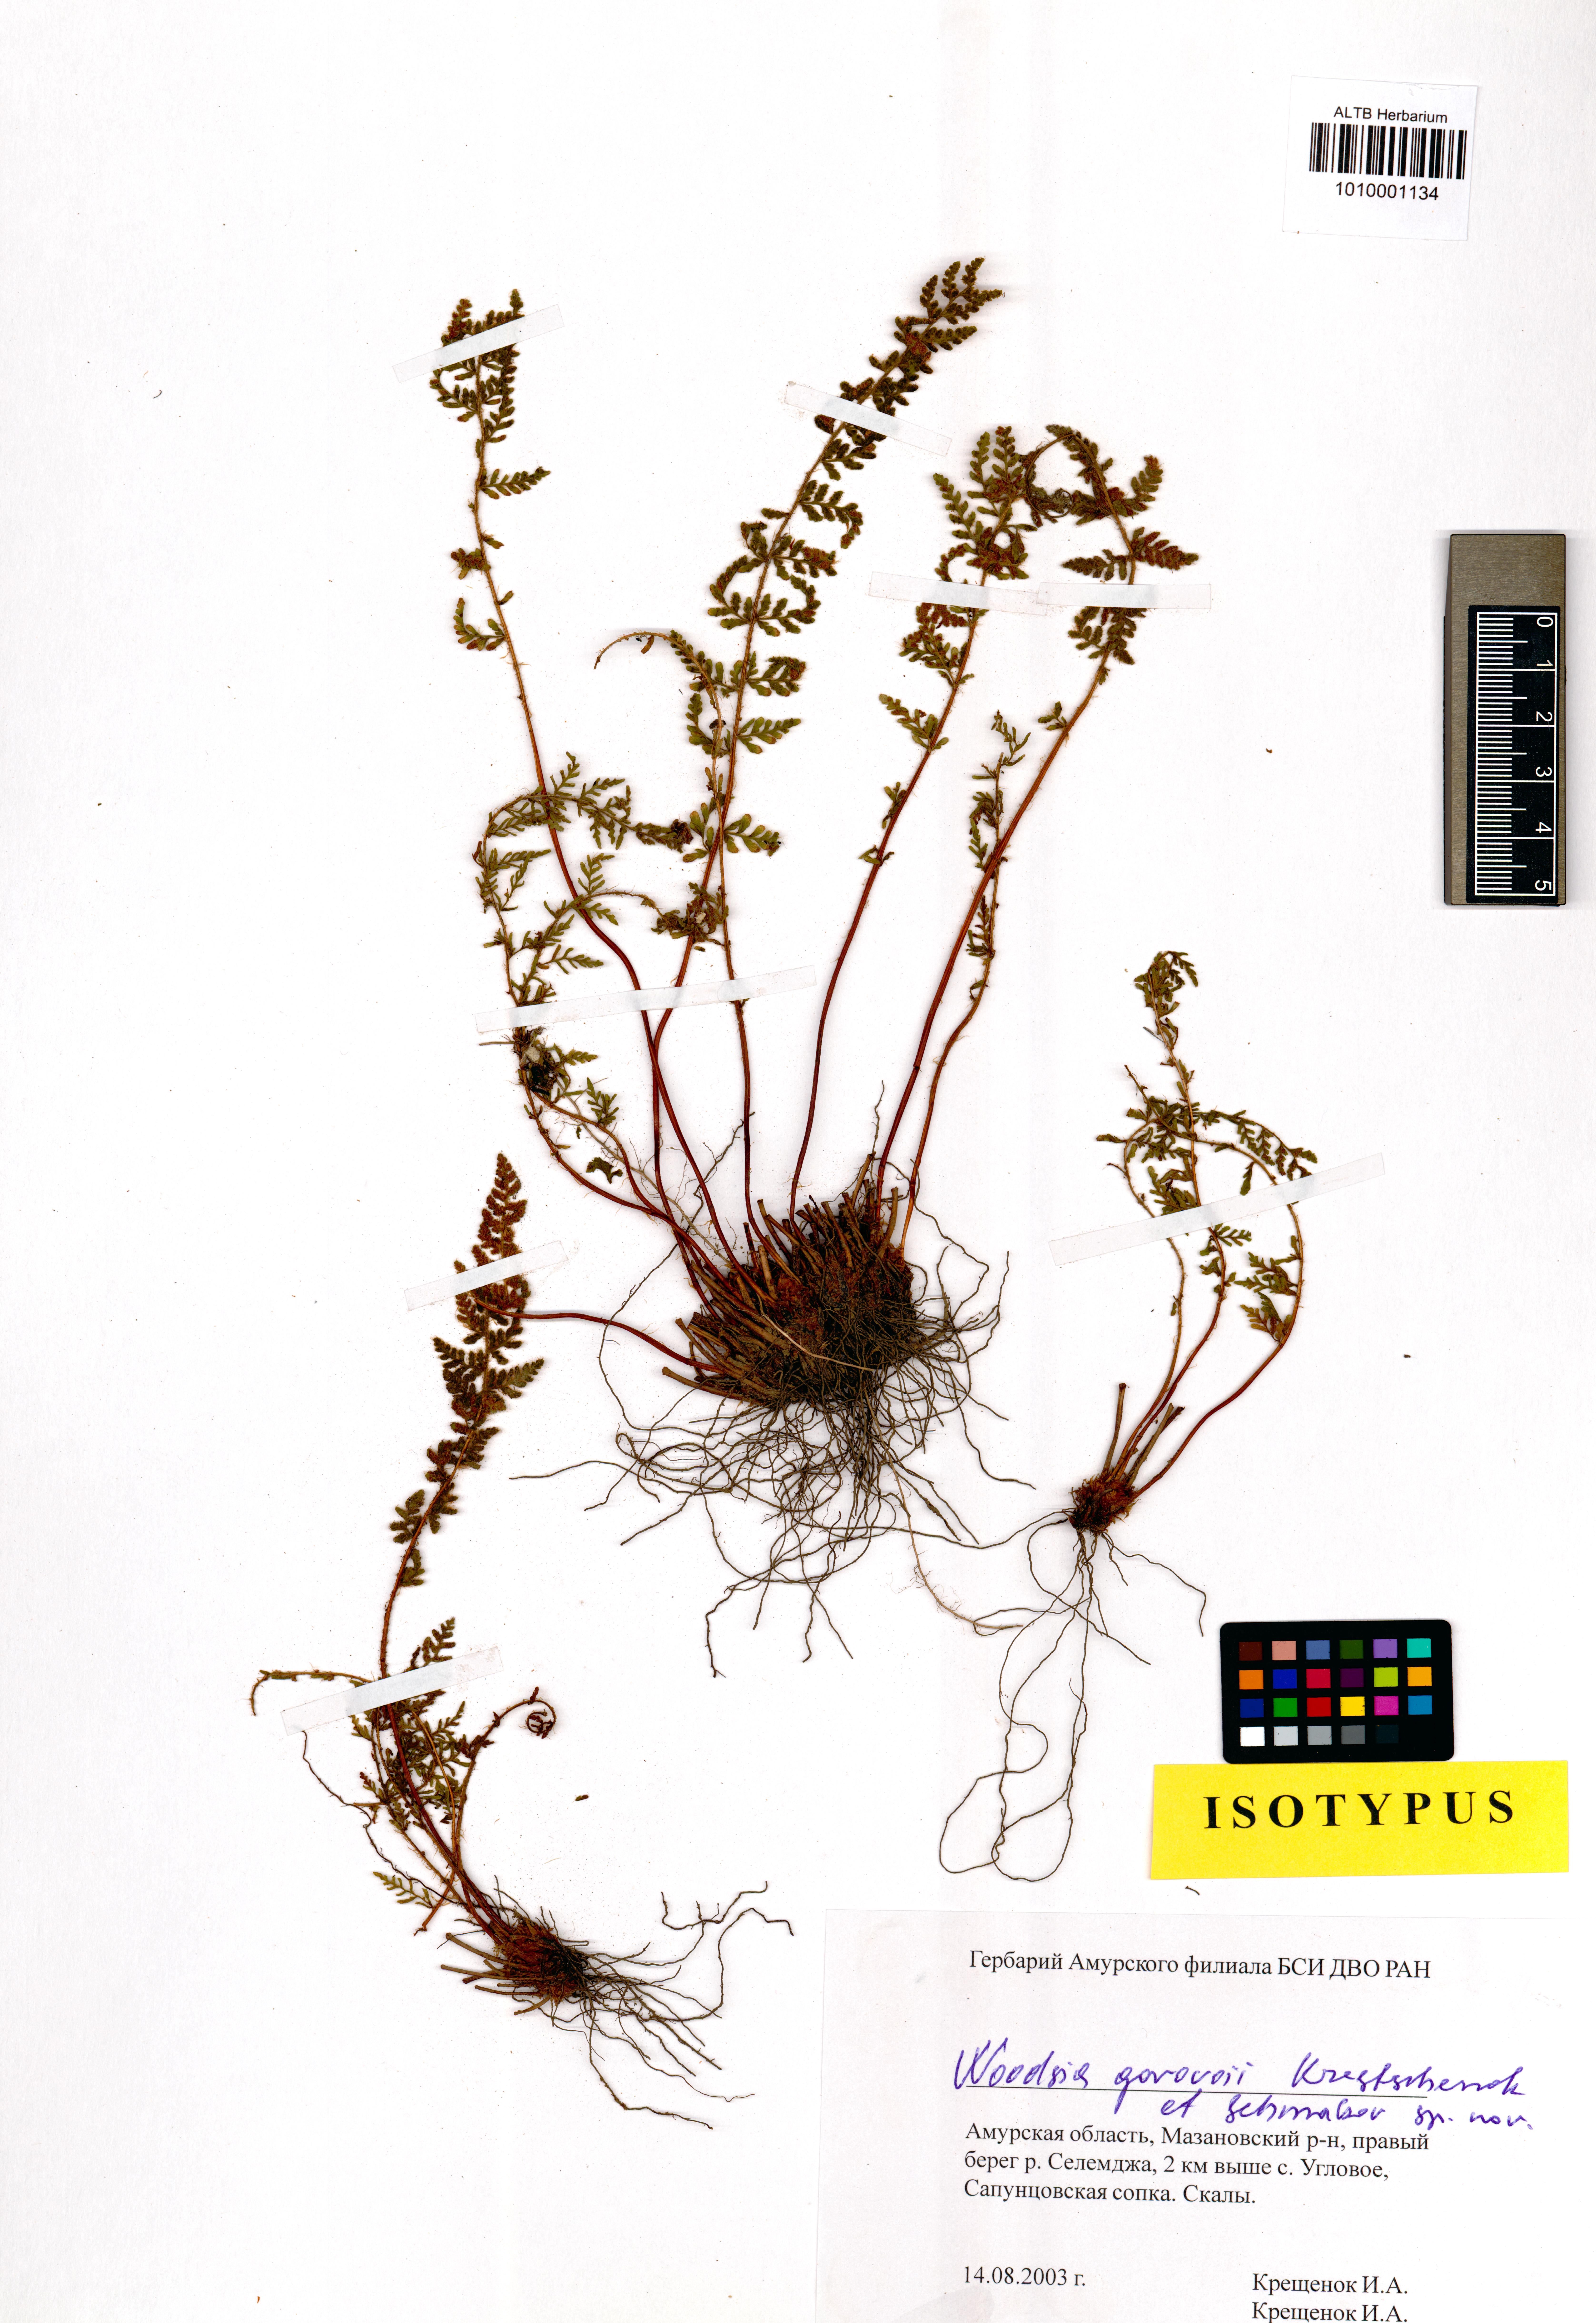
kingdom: Plantae
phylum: Tracheophyta
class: Polypodiopsida
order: Polypodiales
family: Woodsiaceae
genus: Woodsia
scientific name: Woodsia gorovoii
